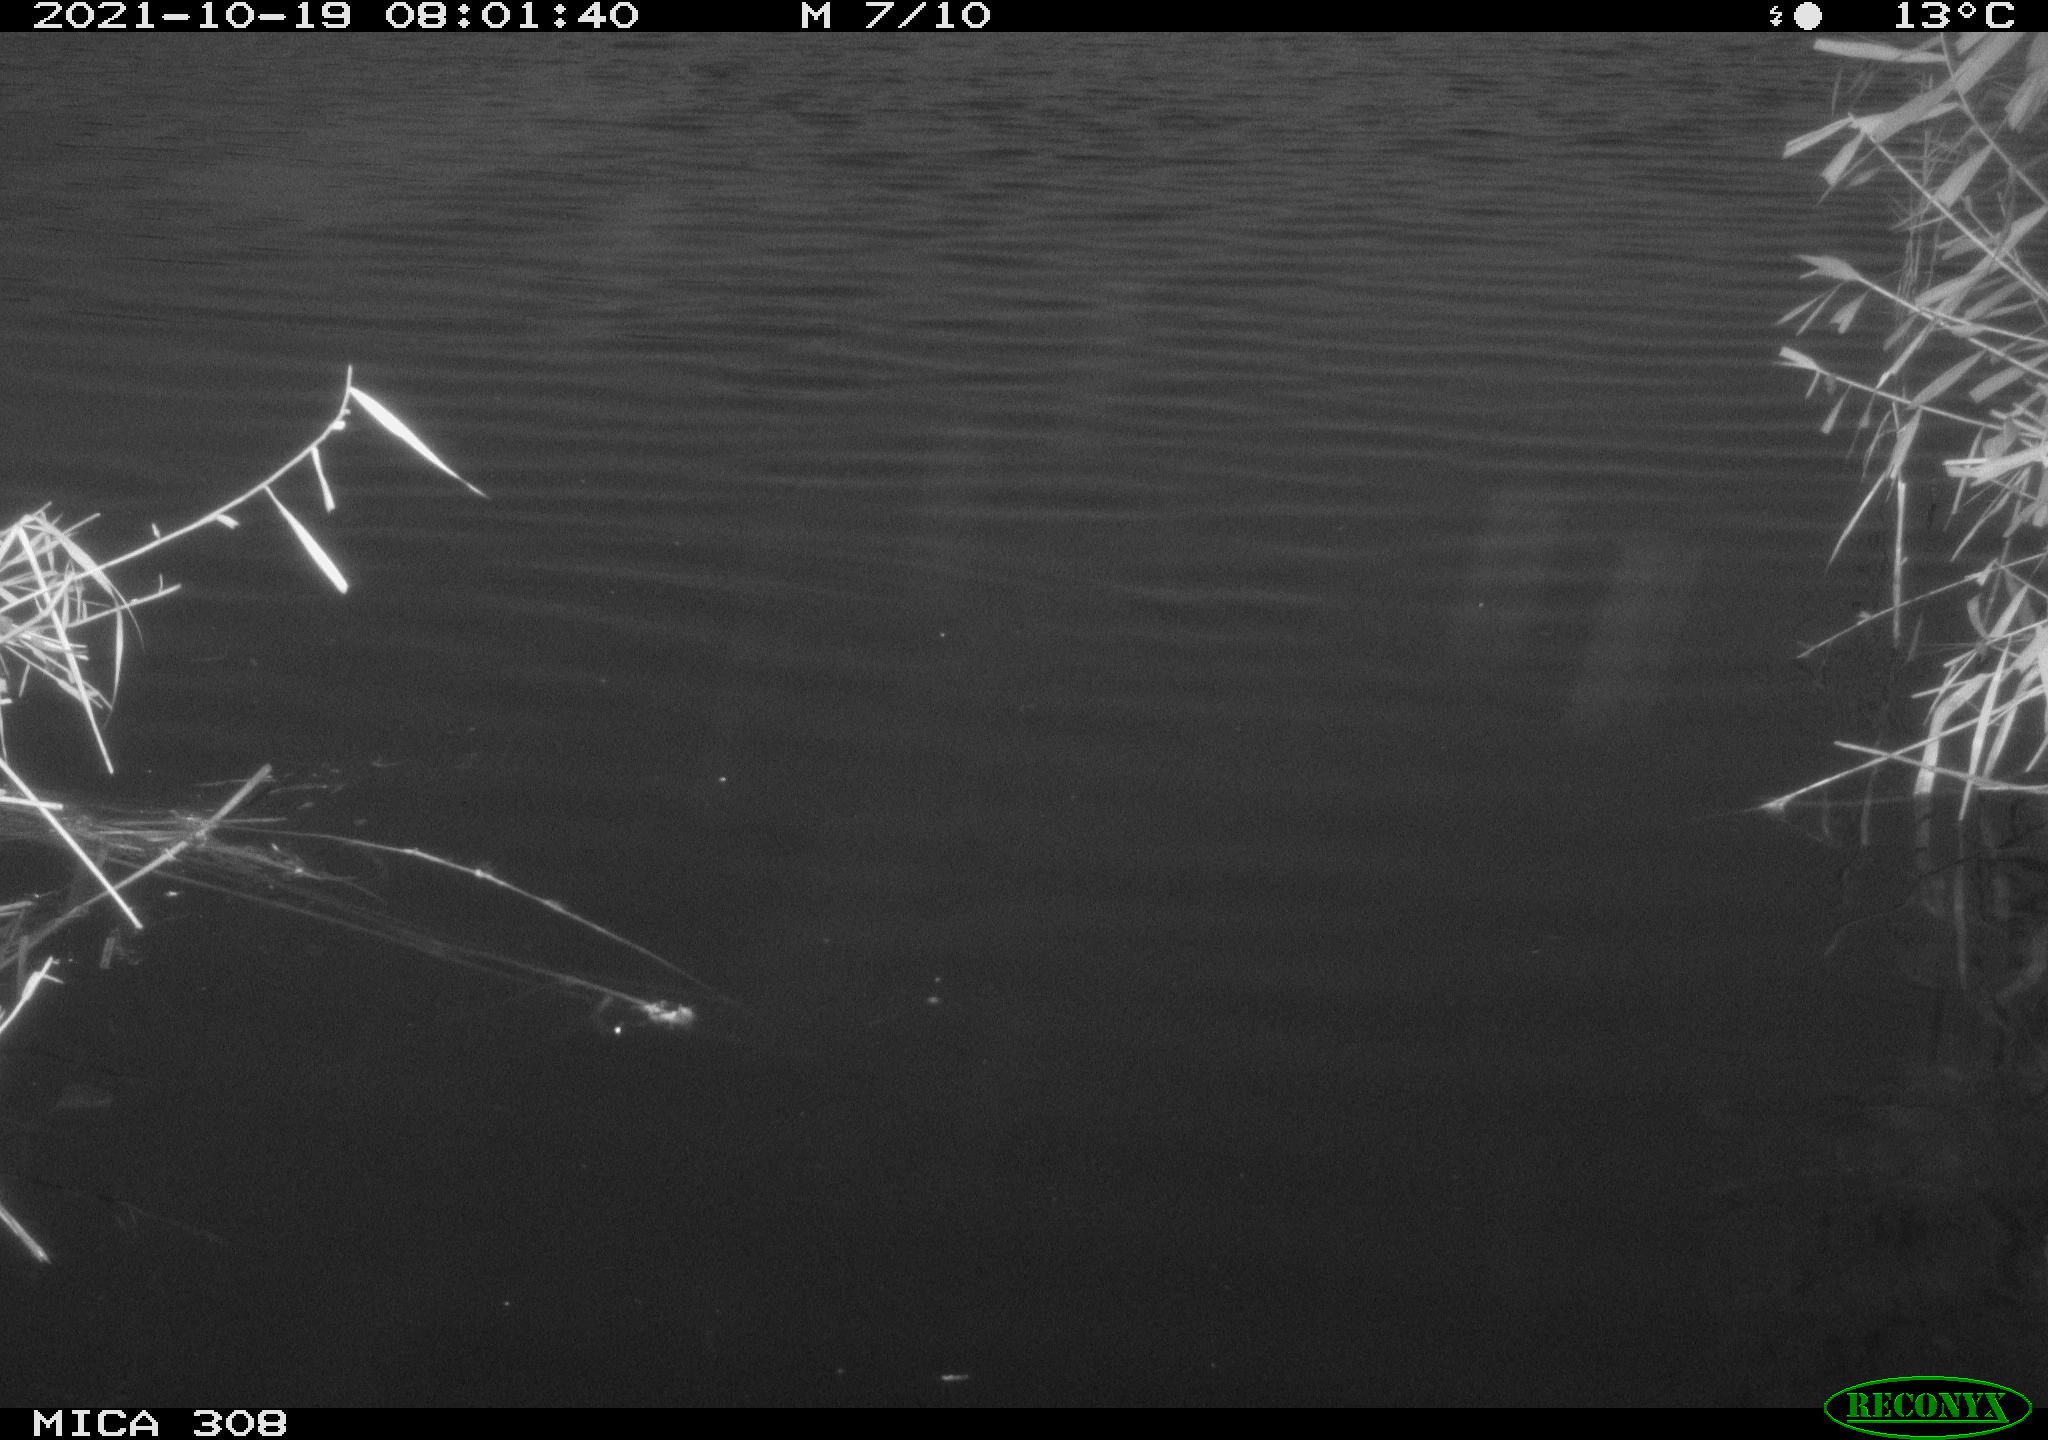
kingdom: Animalia
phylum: Chordata
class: Aves
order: Gruiformes
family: Rallidae
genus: Fulica
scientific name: Fulica atra
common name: Eurasian coot
